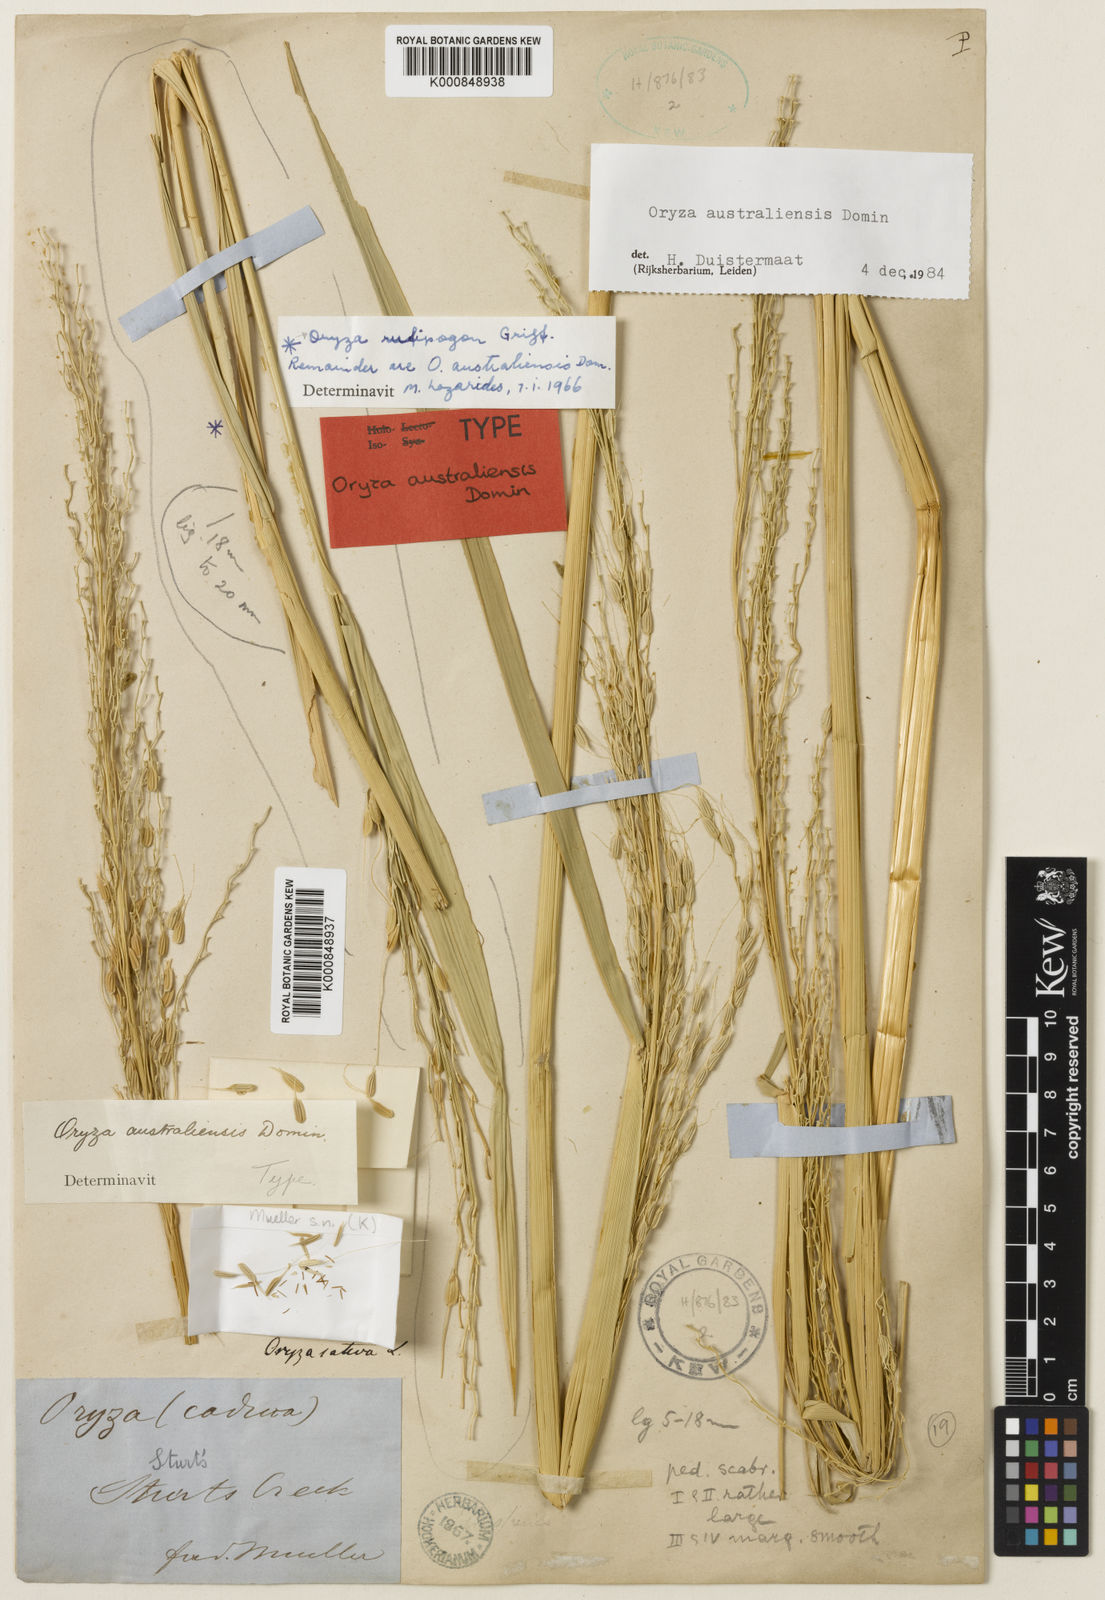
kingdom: Plantae
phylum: Tracheophyta
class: Liliopsida
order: Poales
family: Poaceae
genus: Oryza
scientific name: Oryza australiensis
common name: Australian rice
